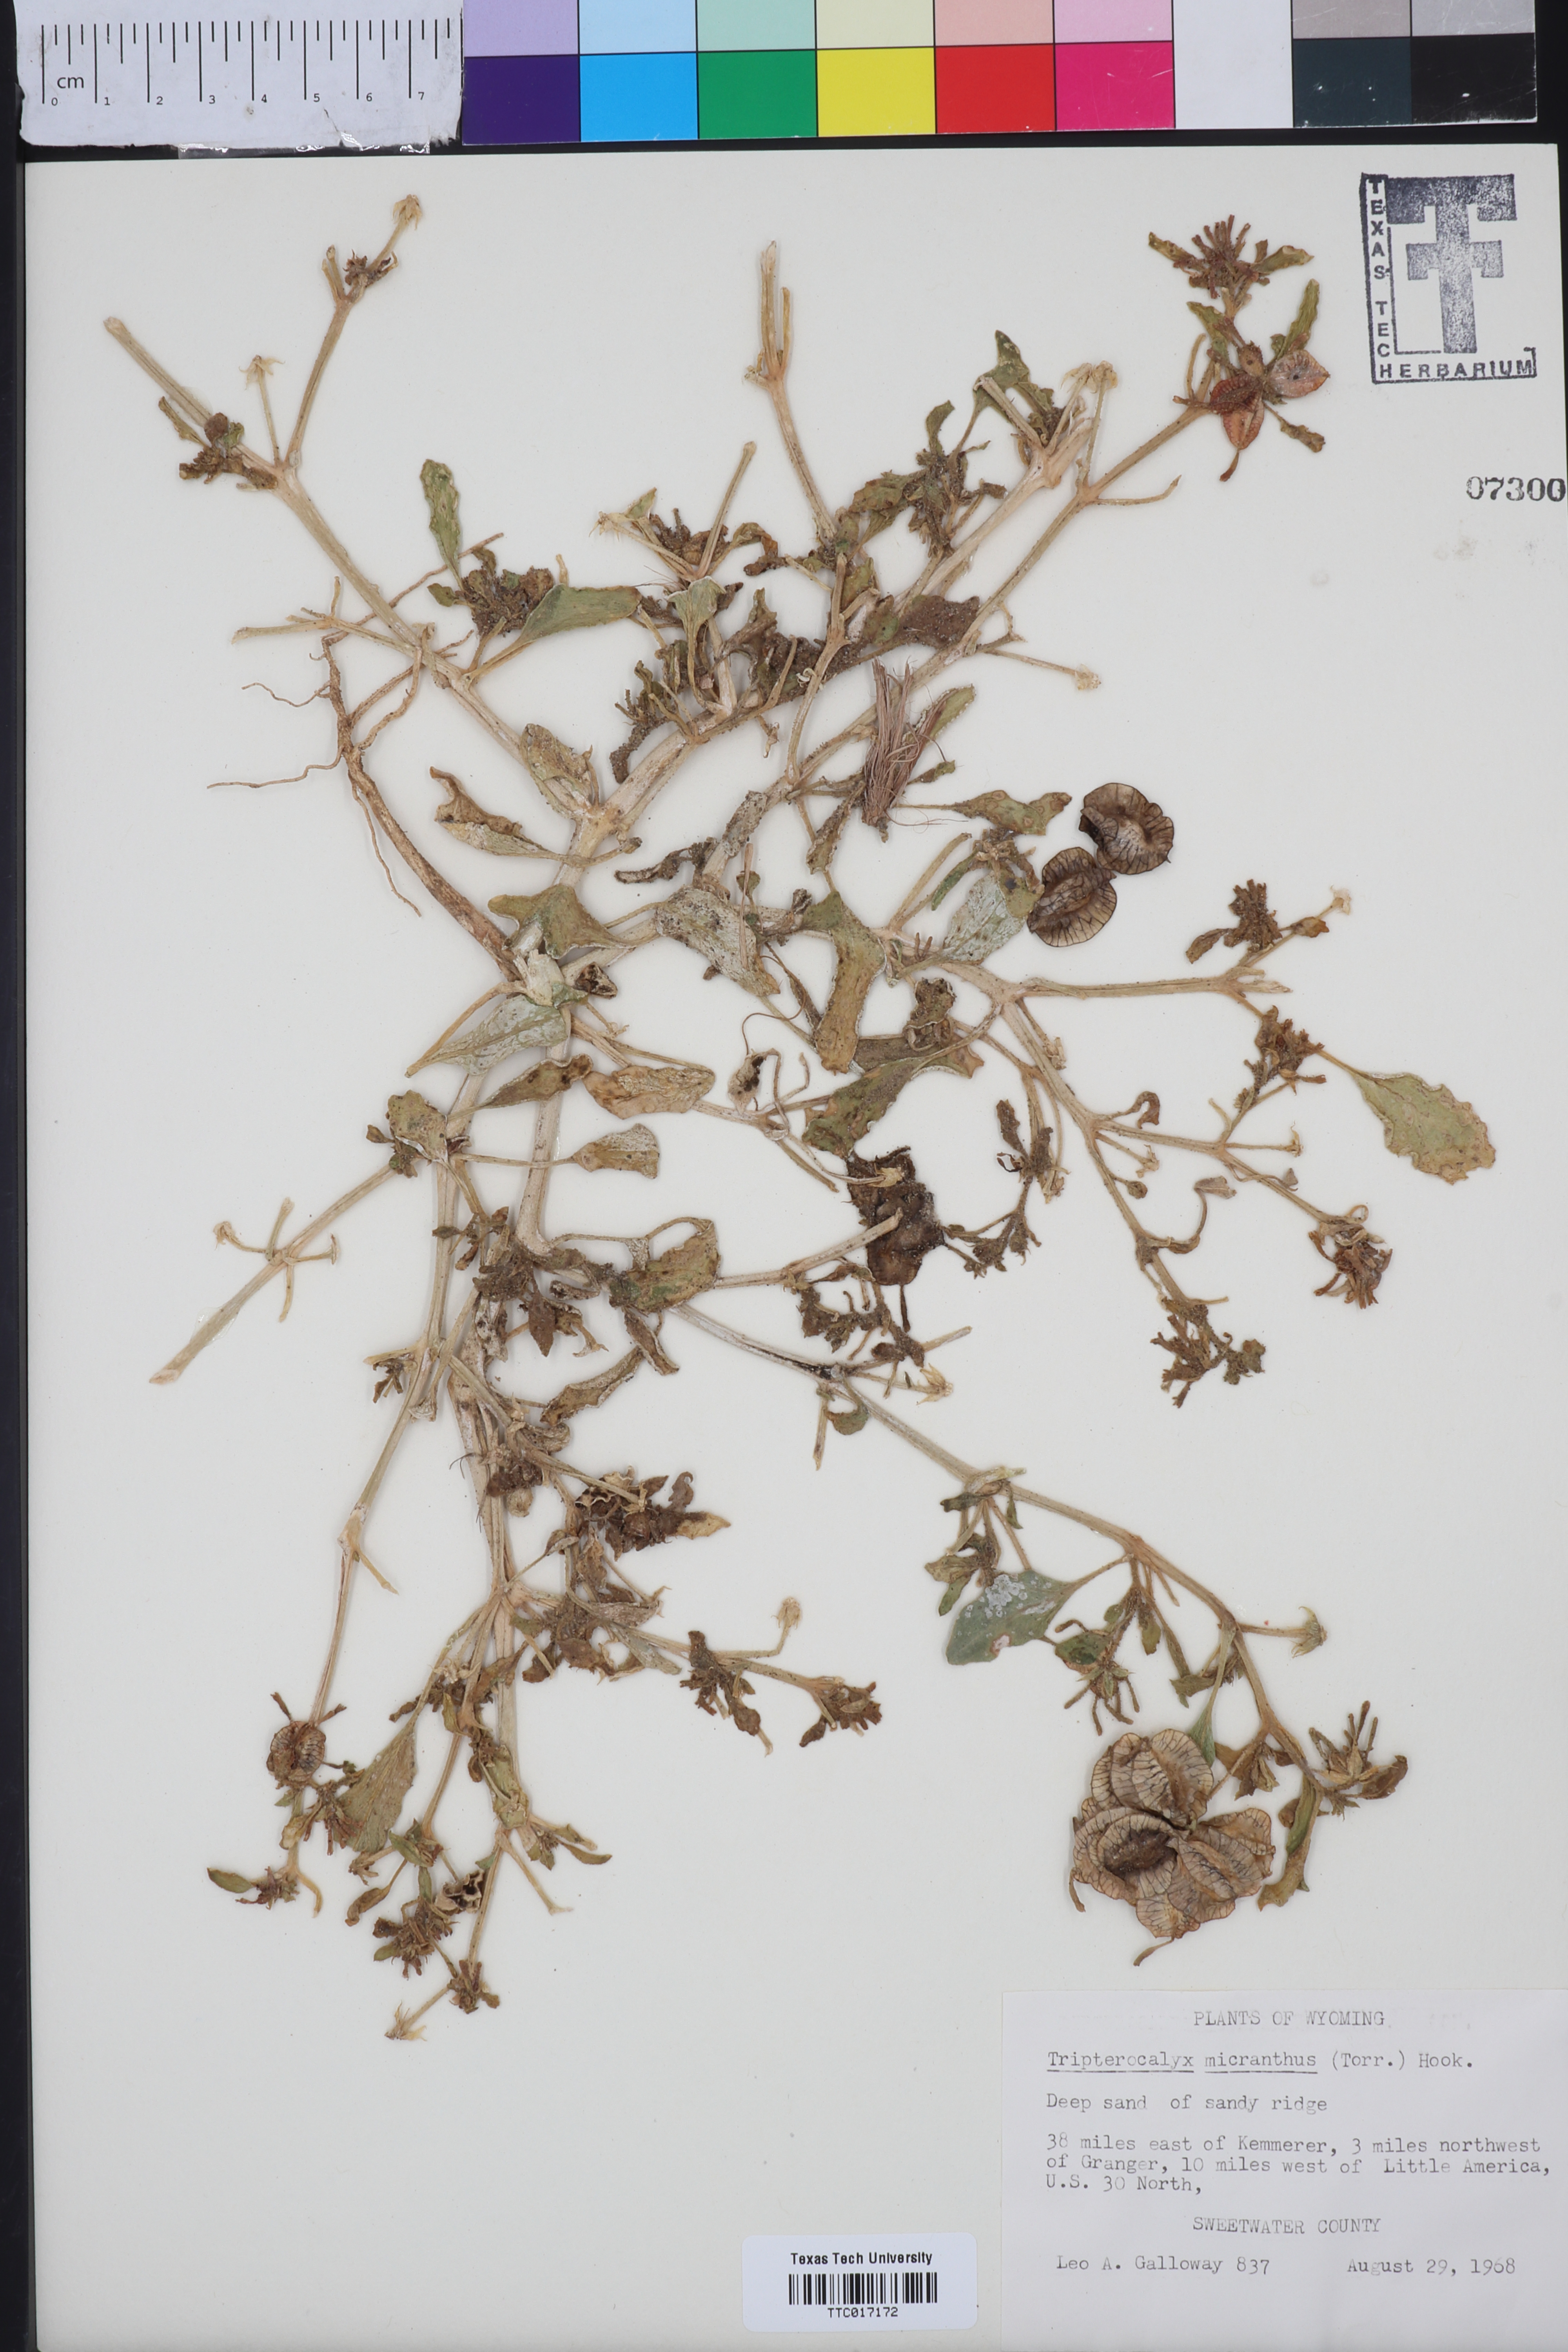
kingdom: Plantae
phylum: Tracheophyta
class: Magnoliopsida
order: Caryophyllales
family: Nyctaginaceae
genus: Tripterocalyx
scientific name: Tripterocalyx micranthus
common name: Small-flowered sand-verbena
